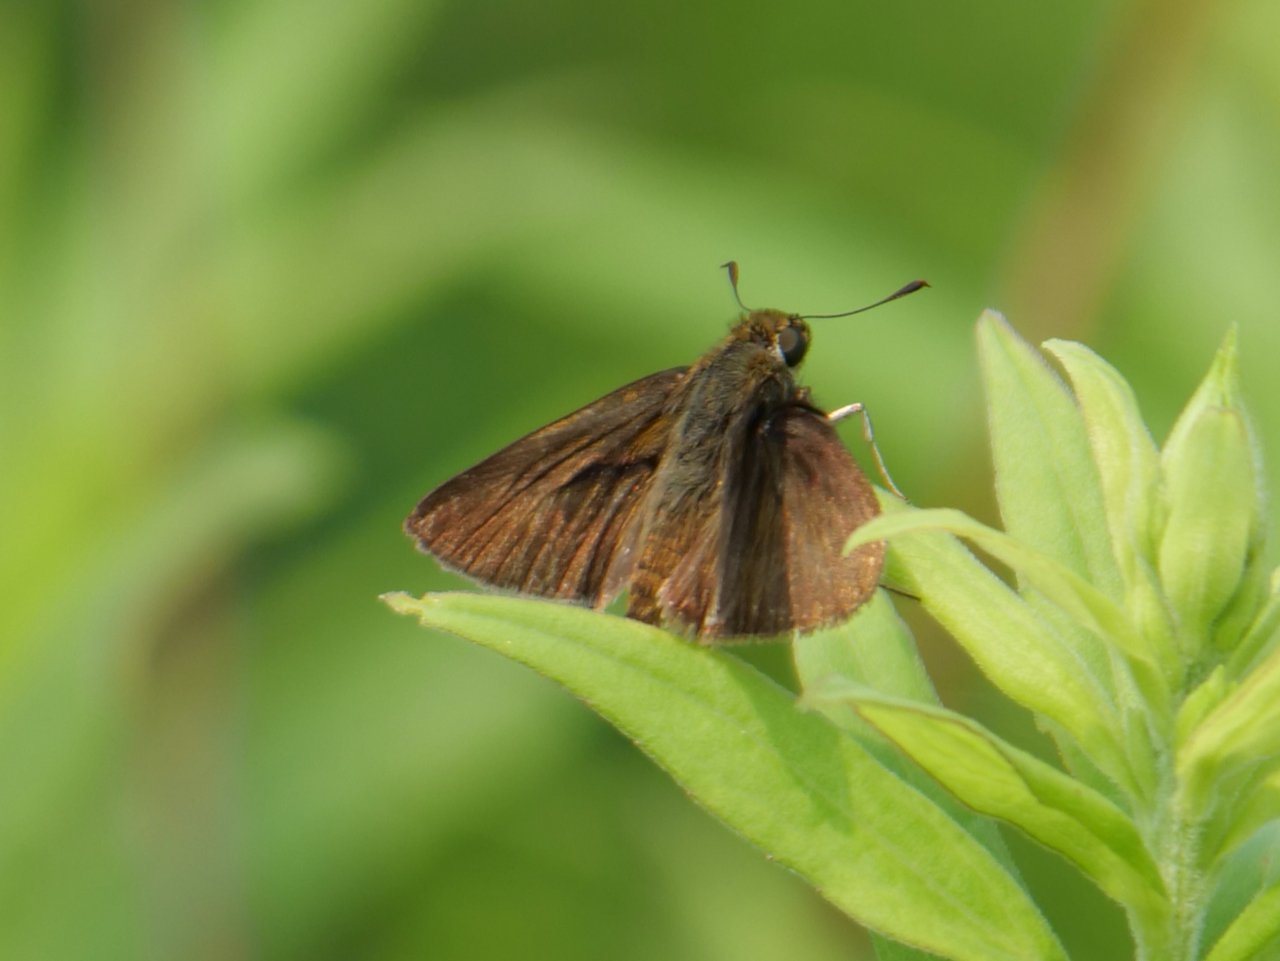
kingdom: Animalia
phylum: Arthropoda
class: Insecta
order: Lepidoptera
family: Hesperiidae
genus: Euphyes
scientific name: Euphyes vestris
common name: Dun Skipper
